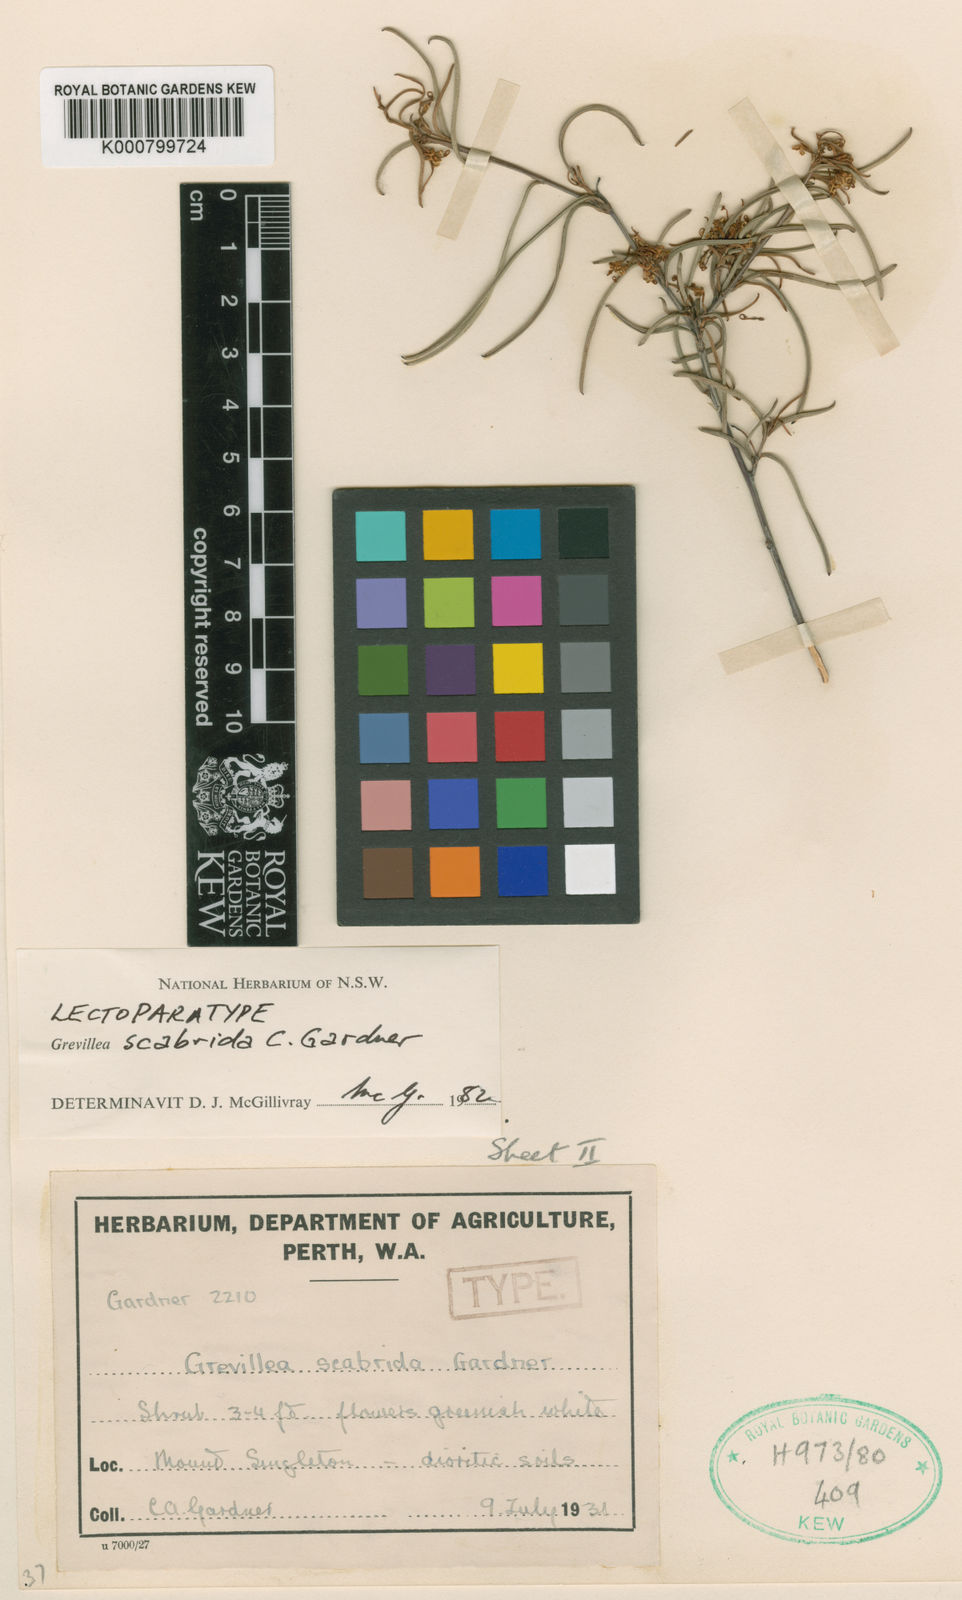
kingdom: Plantae
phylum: Tracheophyta
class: Magnoliopsida
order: Proteales
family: Proteaceae
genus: Grevillea
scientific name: Grevillea scabrida
